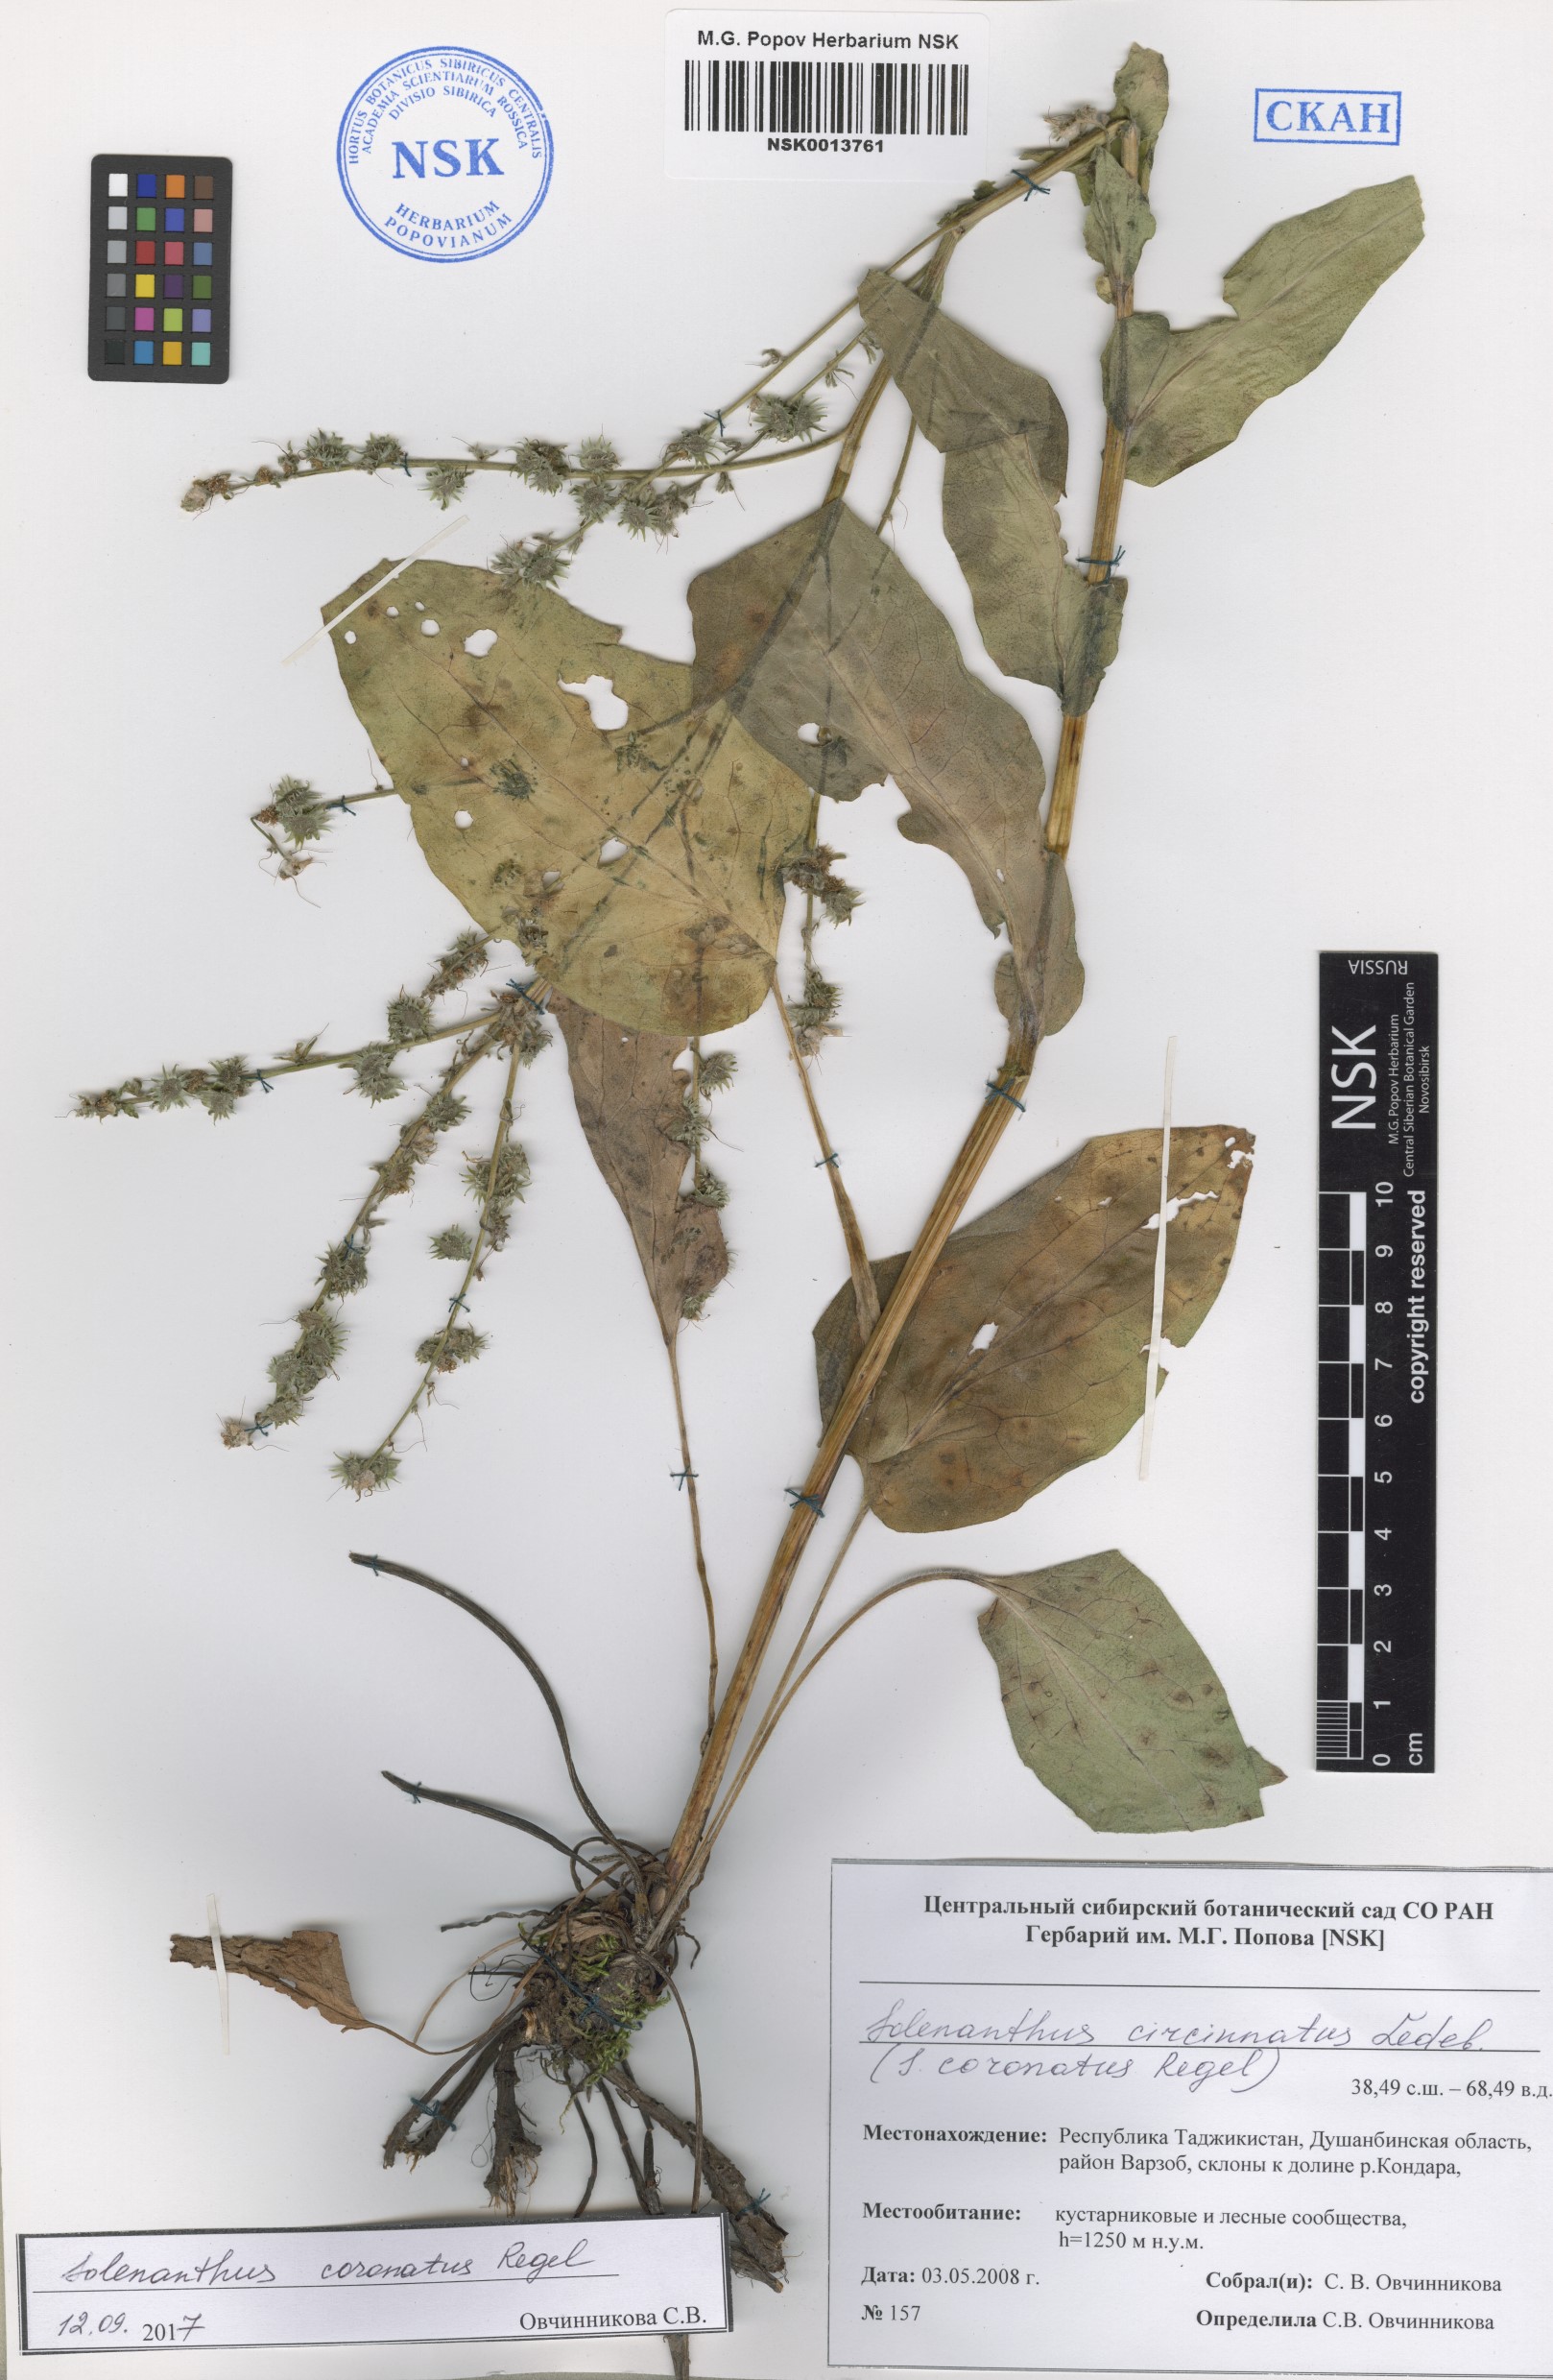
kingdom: Plantae
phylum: Tracheophyta
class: Magnoliopsida
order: Boraginales
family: Boraginaceae
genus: Solenanthus
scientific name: Solenanthus circinnatus
